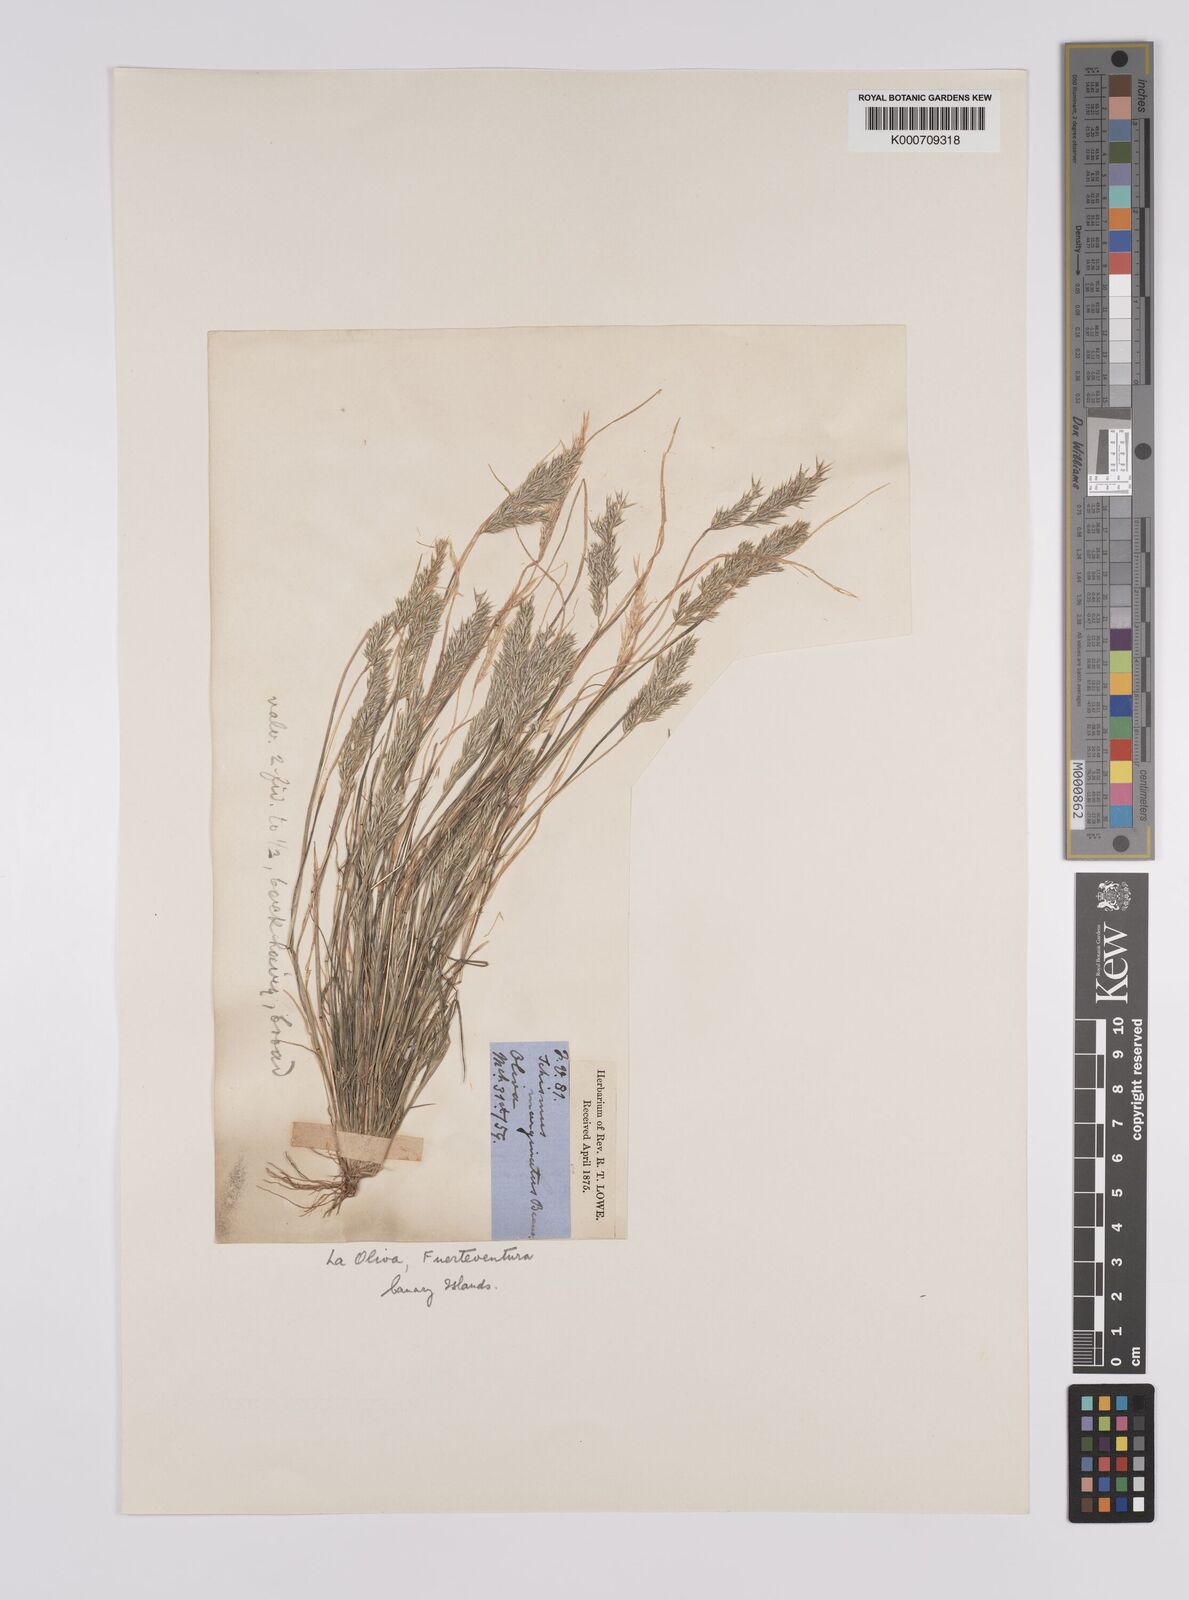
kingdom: Plantae
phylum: Tracheophyta
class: Liliopsida
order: Poales
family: Poaceae
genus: Schismus
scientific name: Schismus barbatus
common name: Kelch-grass
